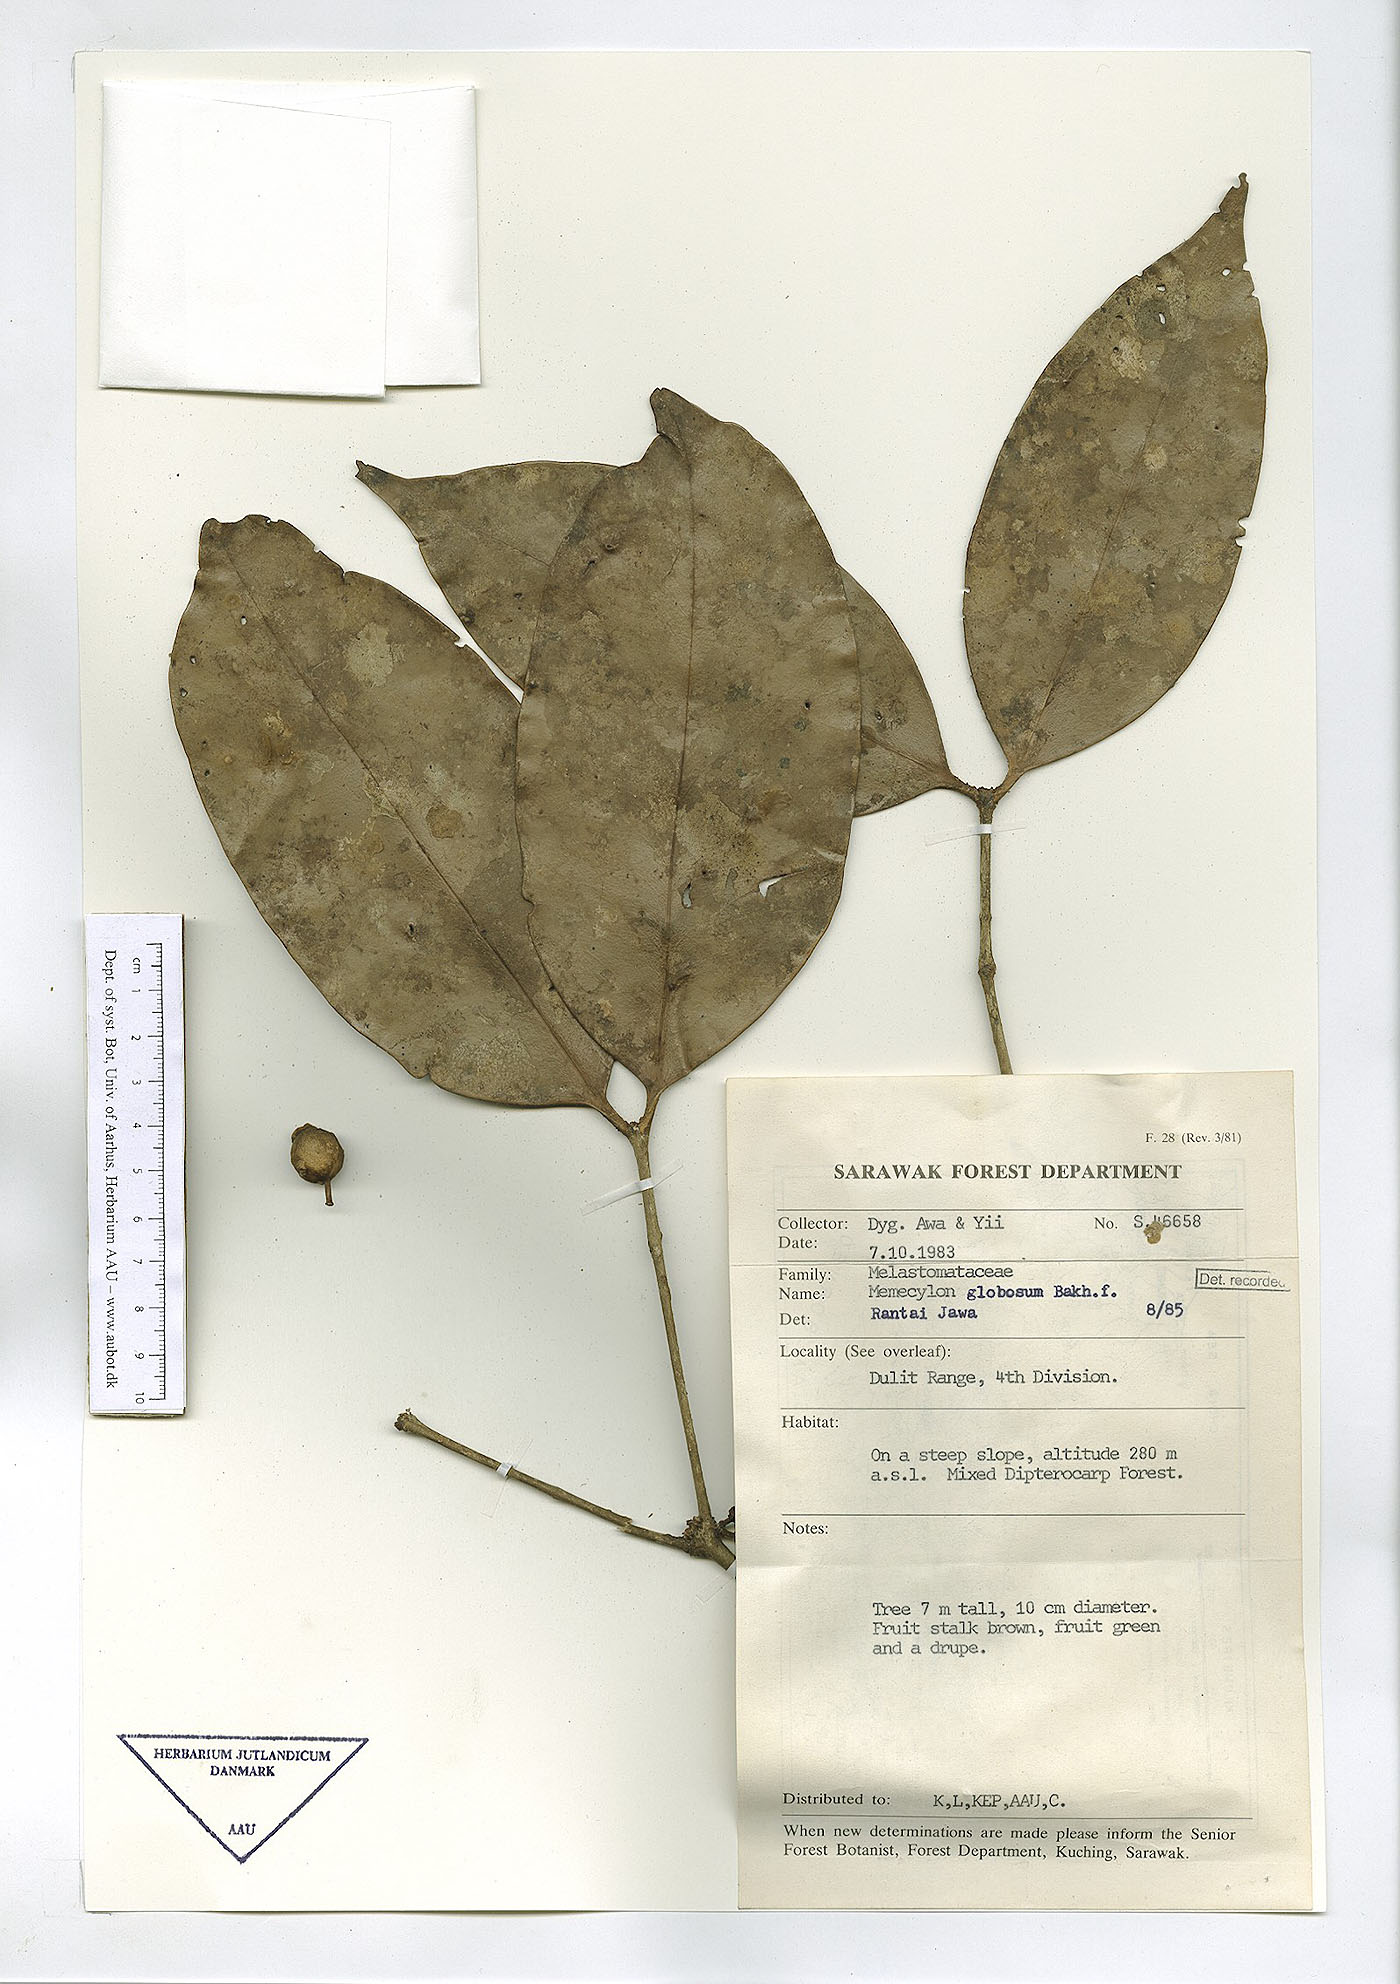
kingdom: Plantae
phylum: Tracheophyta
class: Magnoliopsida
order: Myrtales
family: Melastomataceae
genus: Memecylon
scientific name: Memecylon durum
